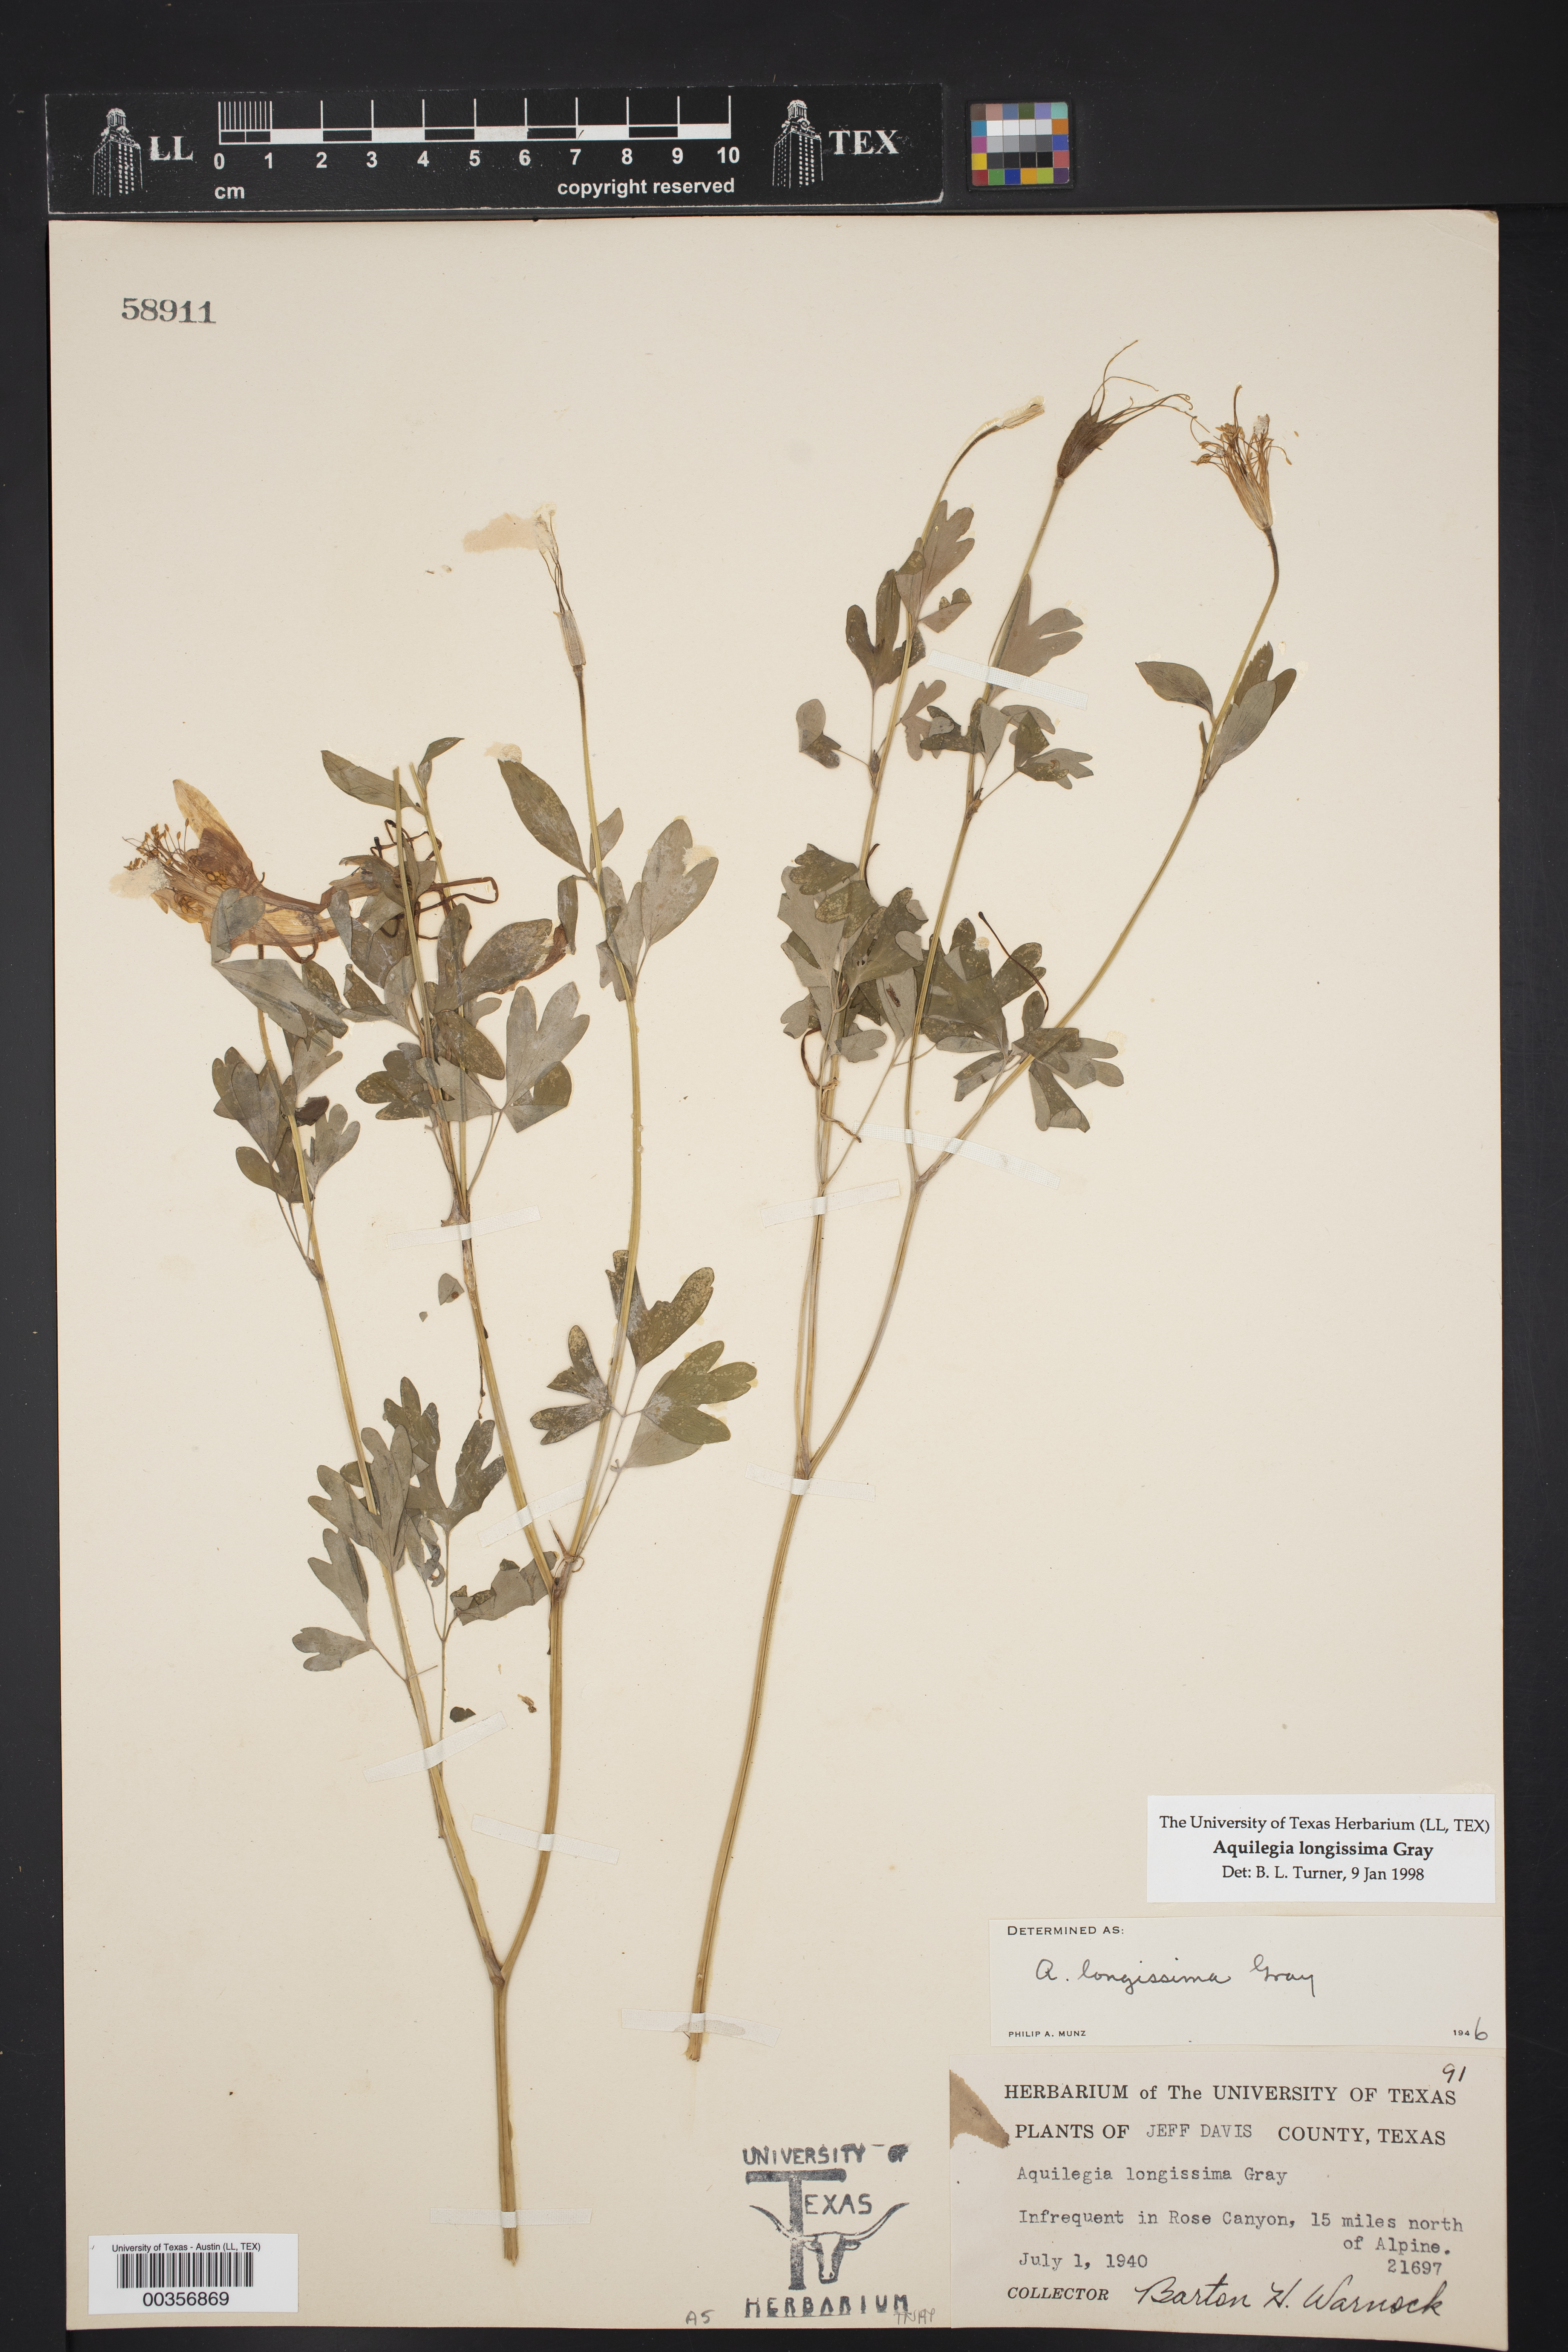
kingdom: Plantae
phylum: Tracheophyta
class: Magnoliopsida
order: Ranunculales
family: Ranunculaceae
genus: Aquilegia
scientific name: Aquilegia longissima
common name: Long-spur columbine
